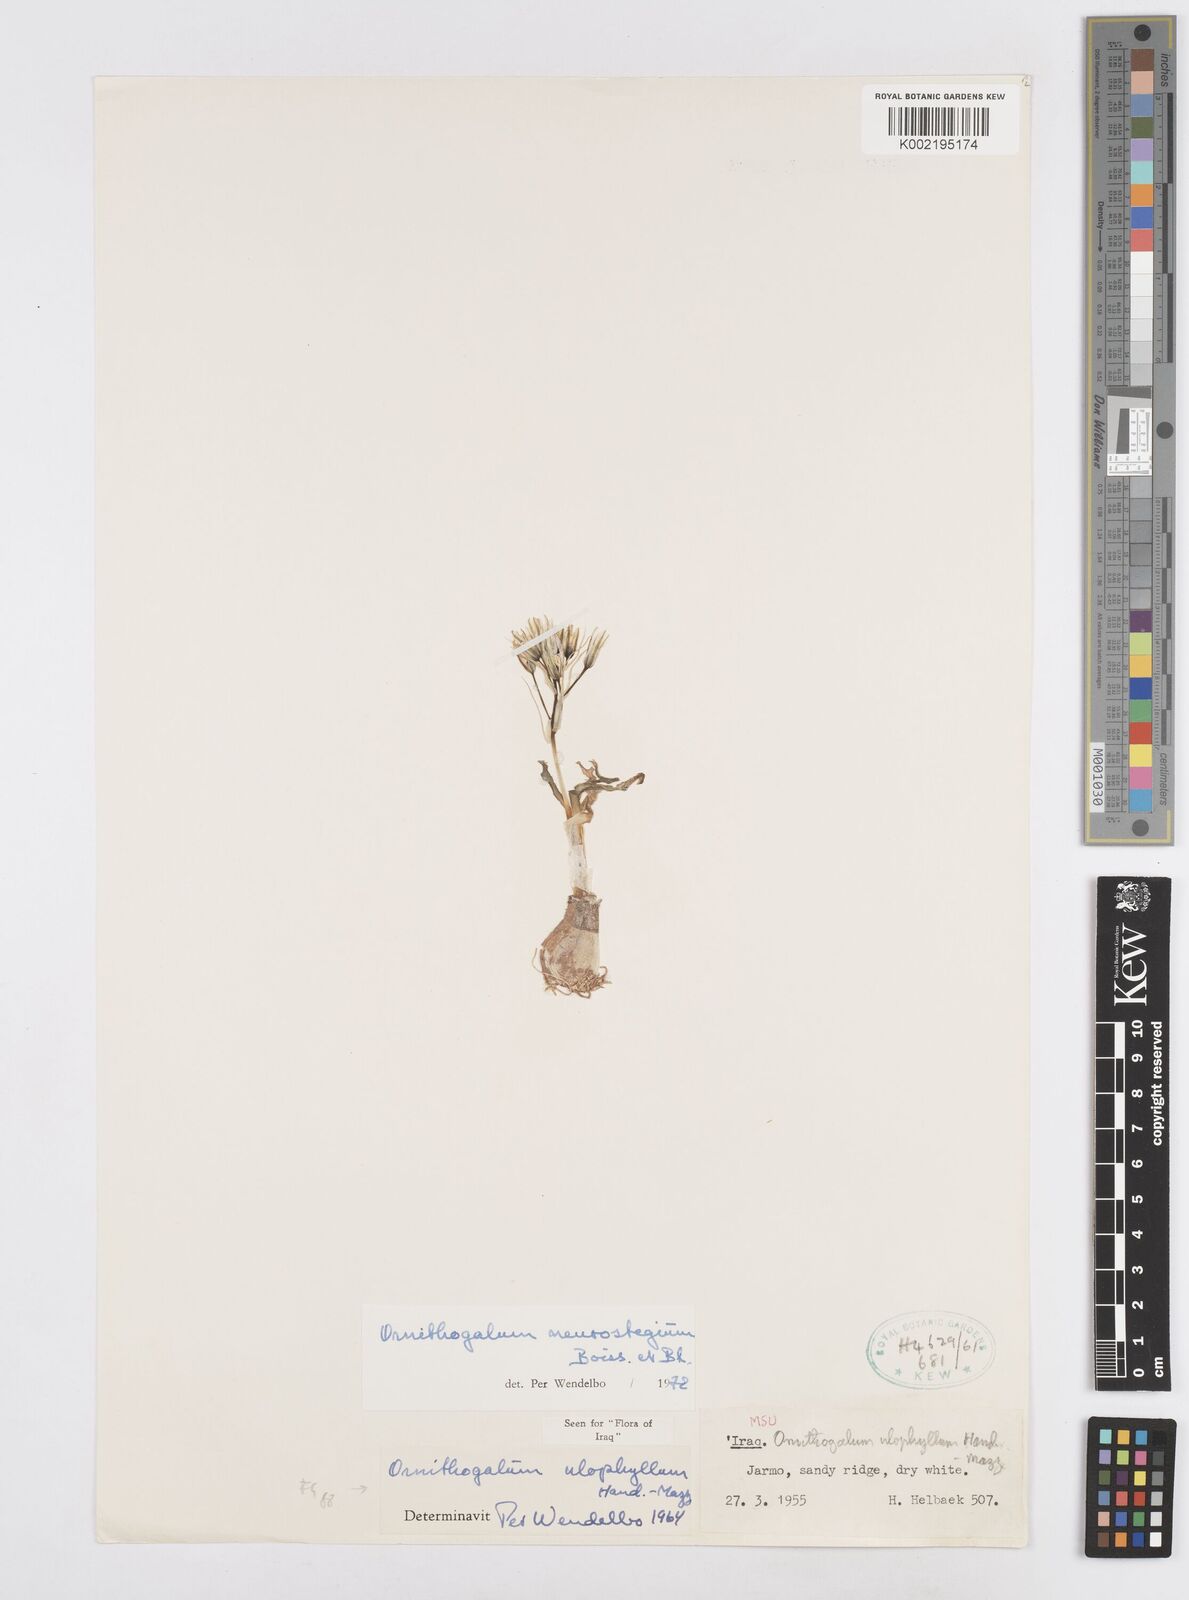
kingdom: Plantae
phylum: Tracheophyta
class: Liliopsida
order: Asparagales
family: Asparagaceae
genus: Ornithogalum
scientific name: Ornithogalum neurostegium
